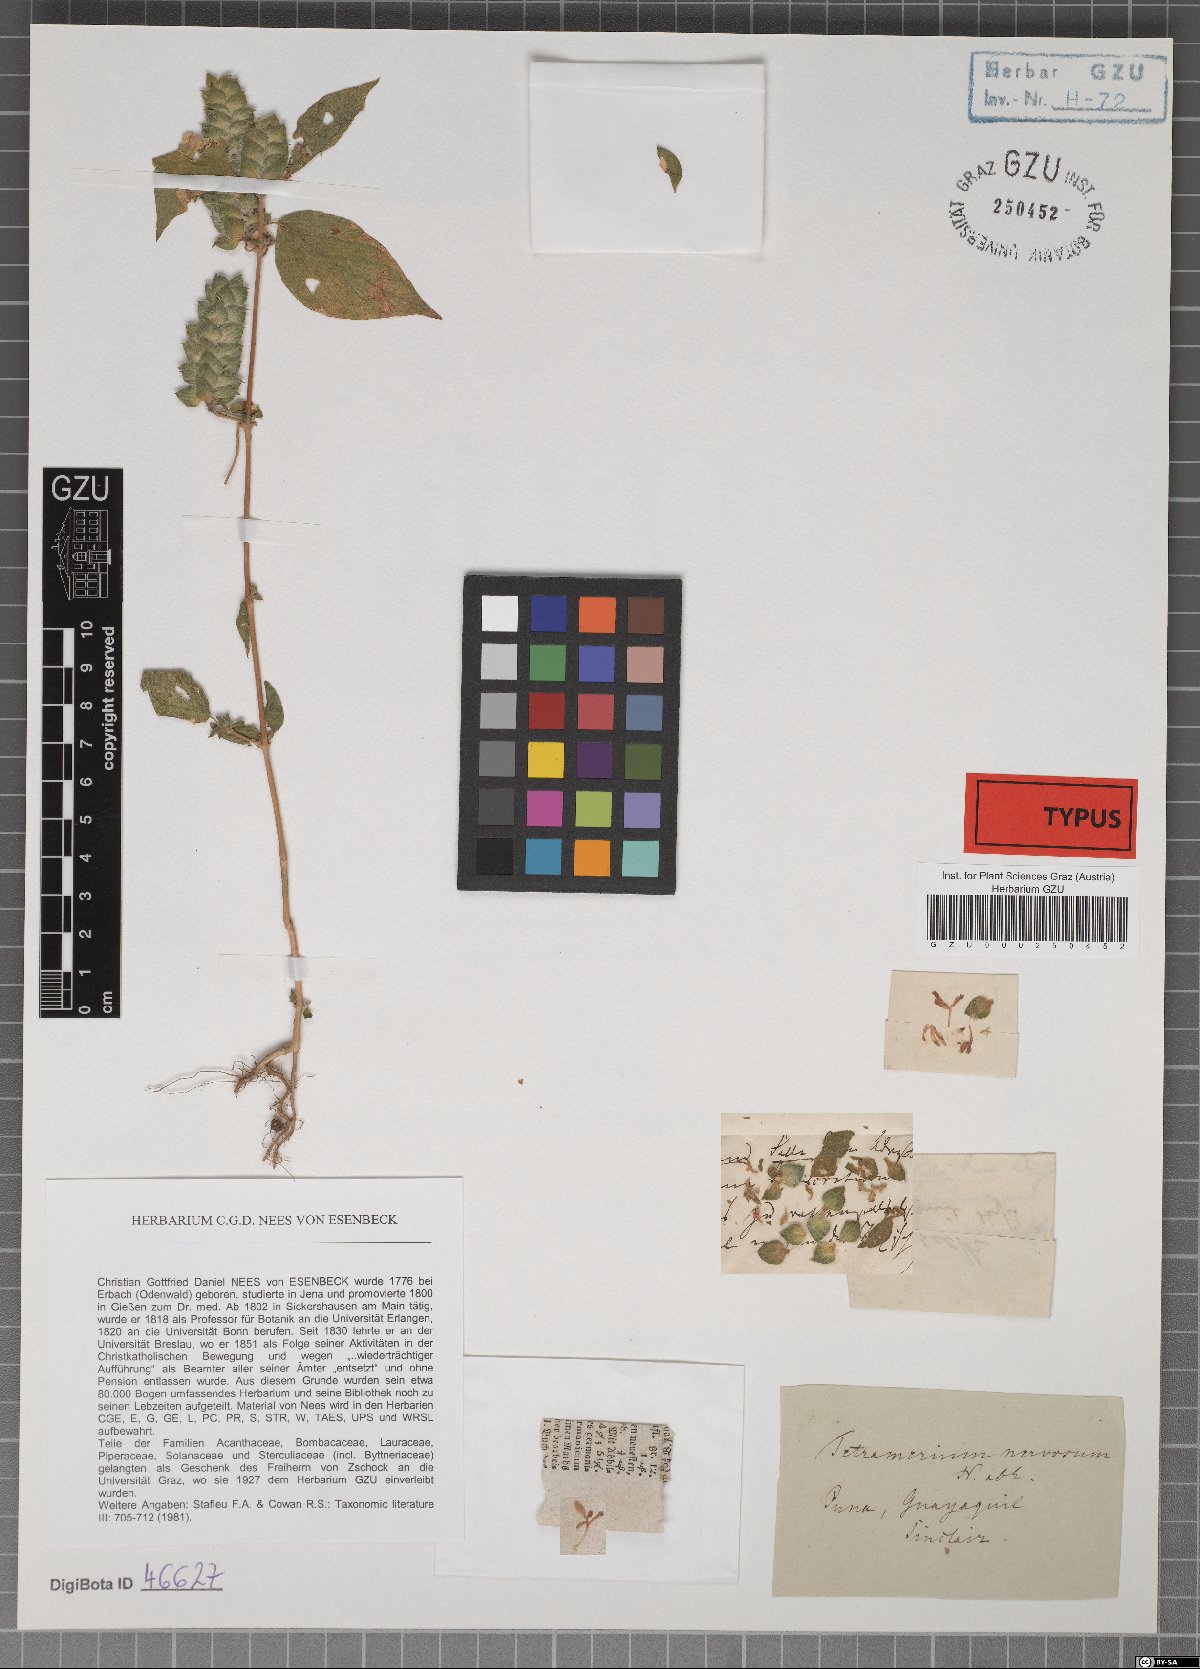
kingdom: Plantae
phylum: Tracheophyta
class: Magnoliopsida
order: Lamiales
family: Acanthaceae
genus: Tetramerium
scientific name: Tetramerium nervosum
